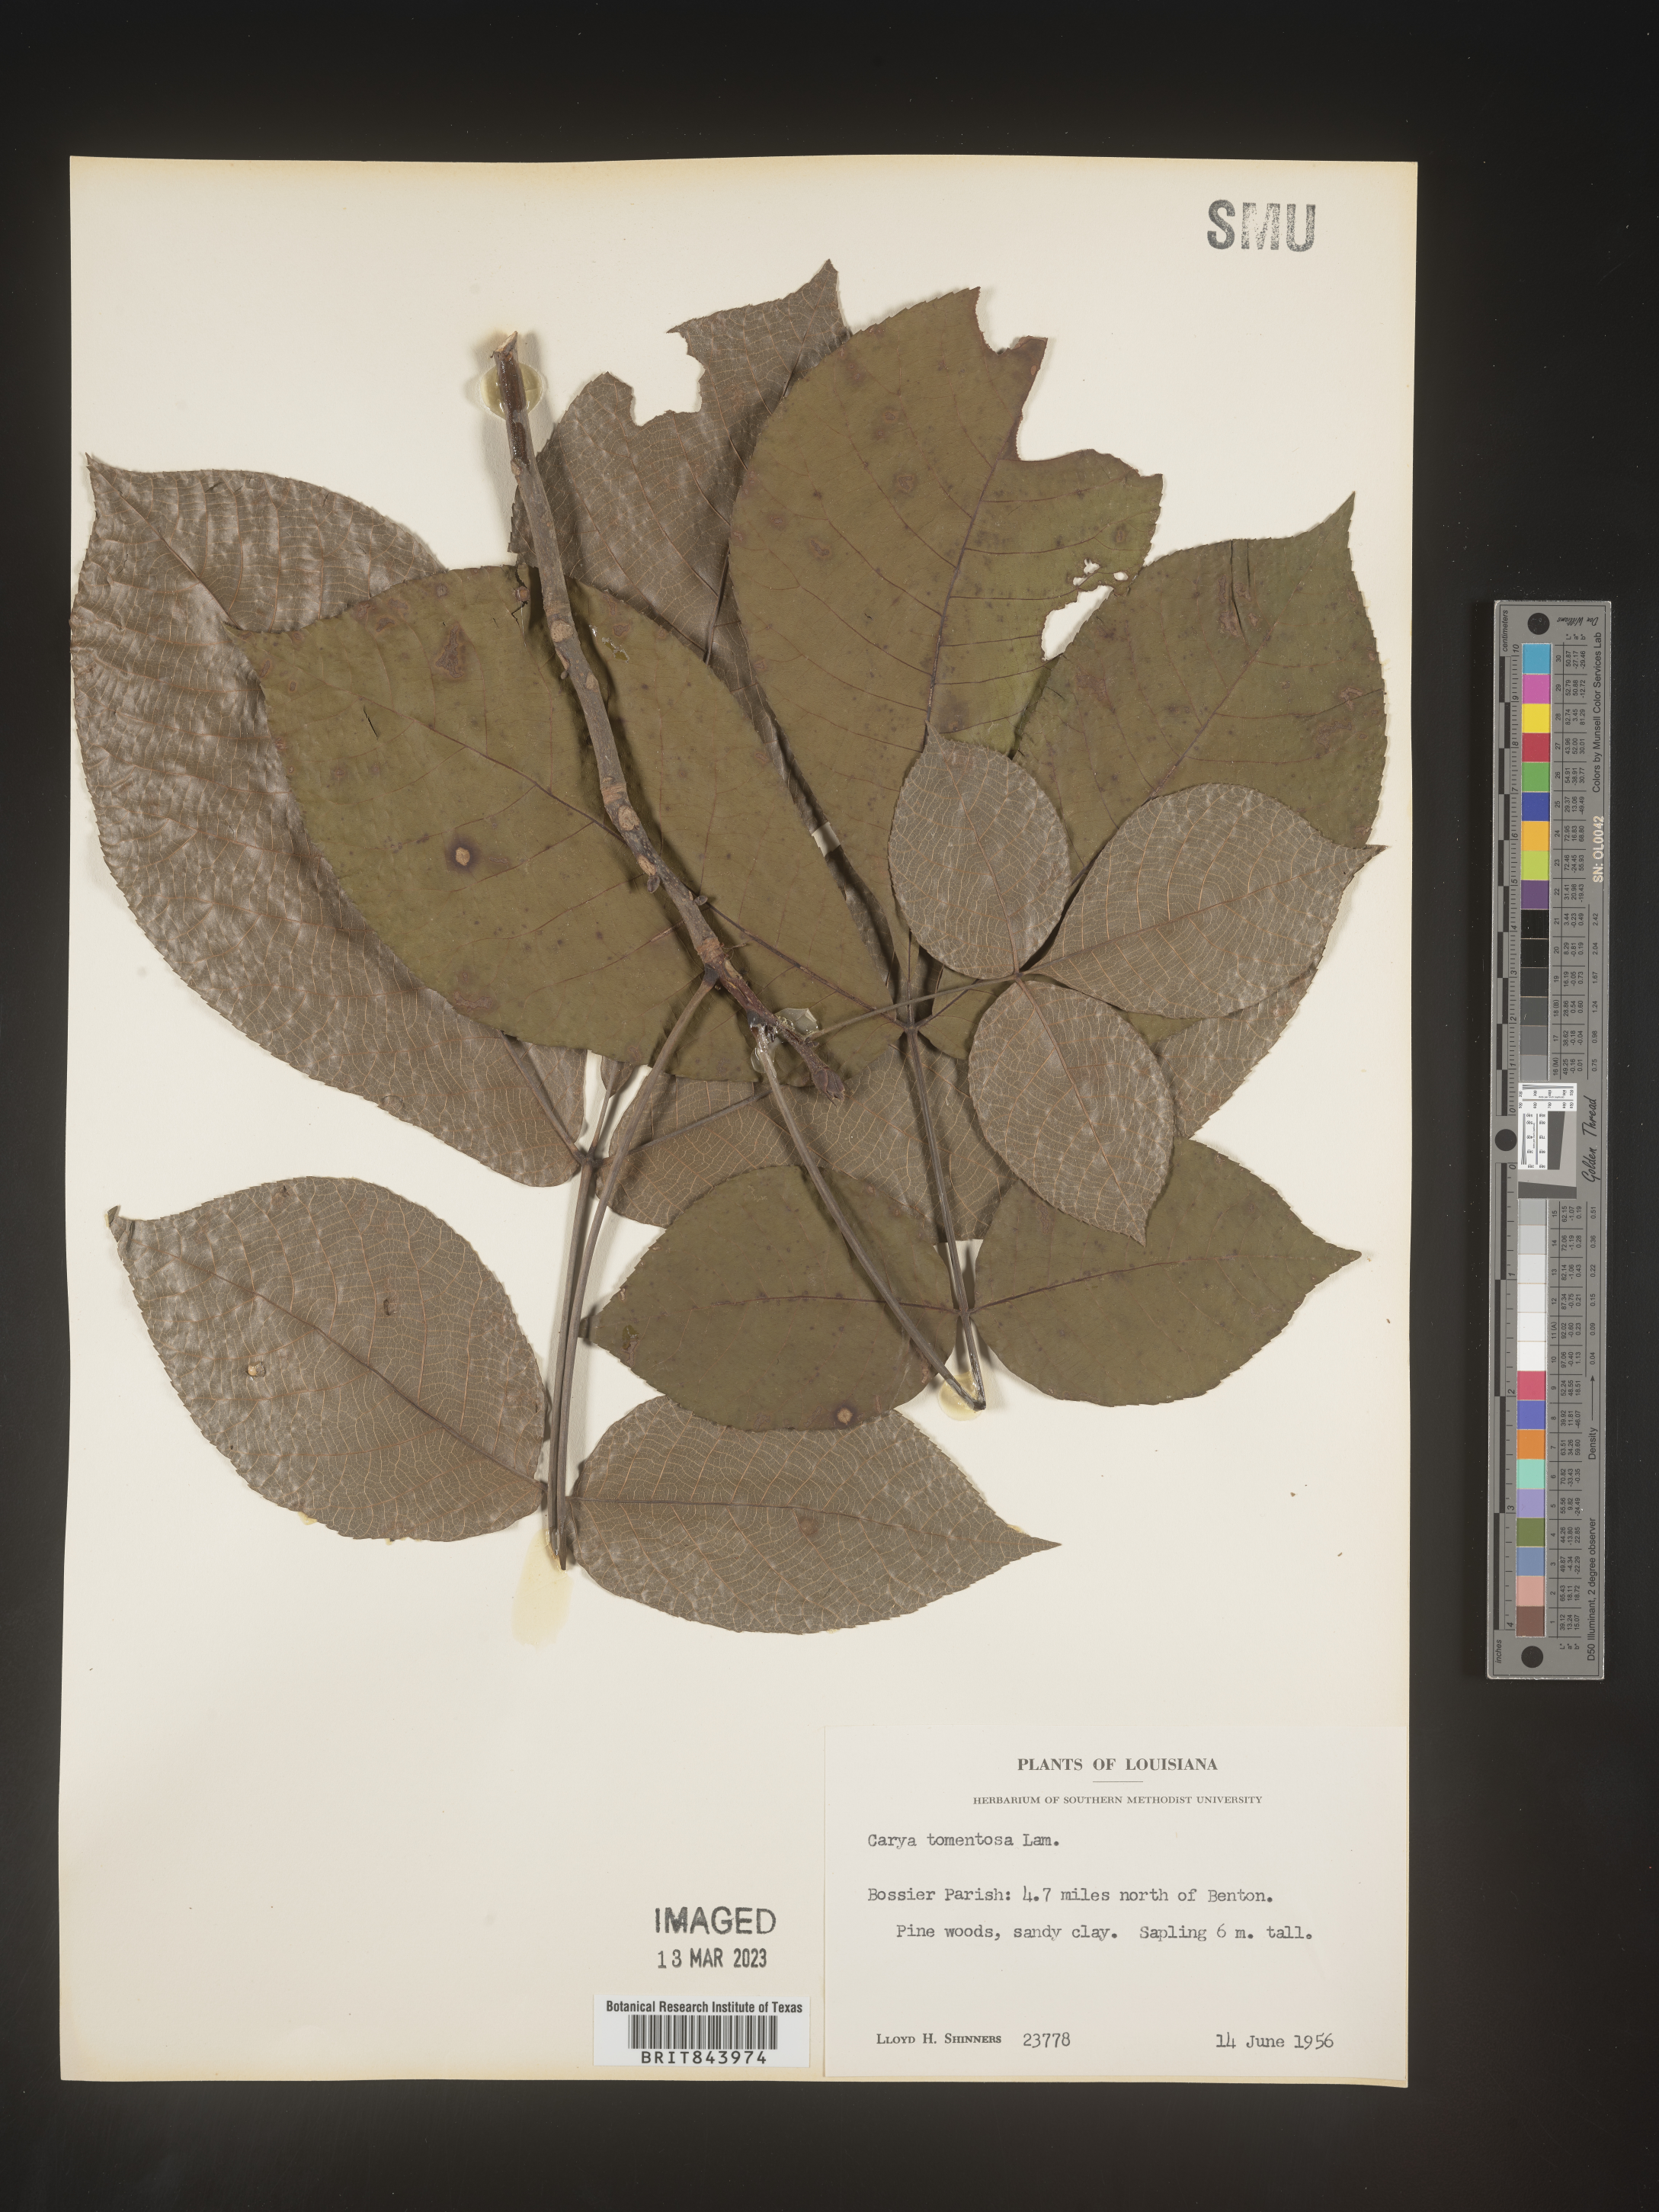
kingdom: Plantae
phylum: Tracheophyta
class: Magnoliopsida
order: Fagales
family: Juglandaceae
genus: Carya
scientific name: Carya alba
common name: Mockernut hickory
